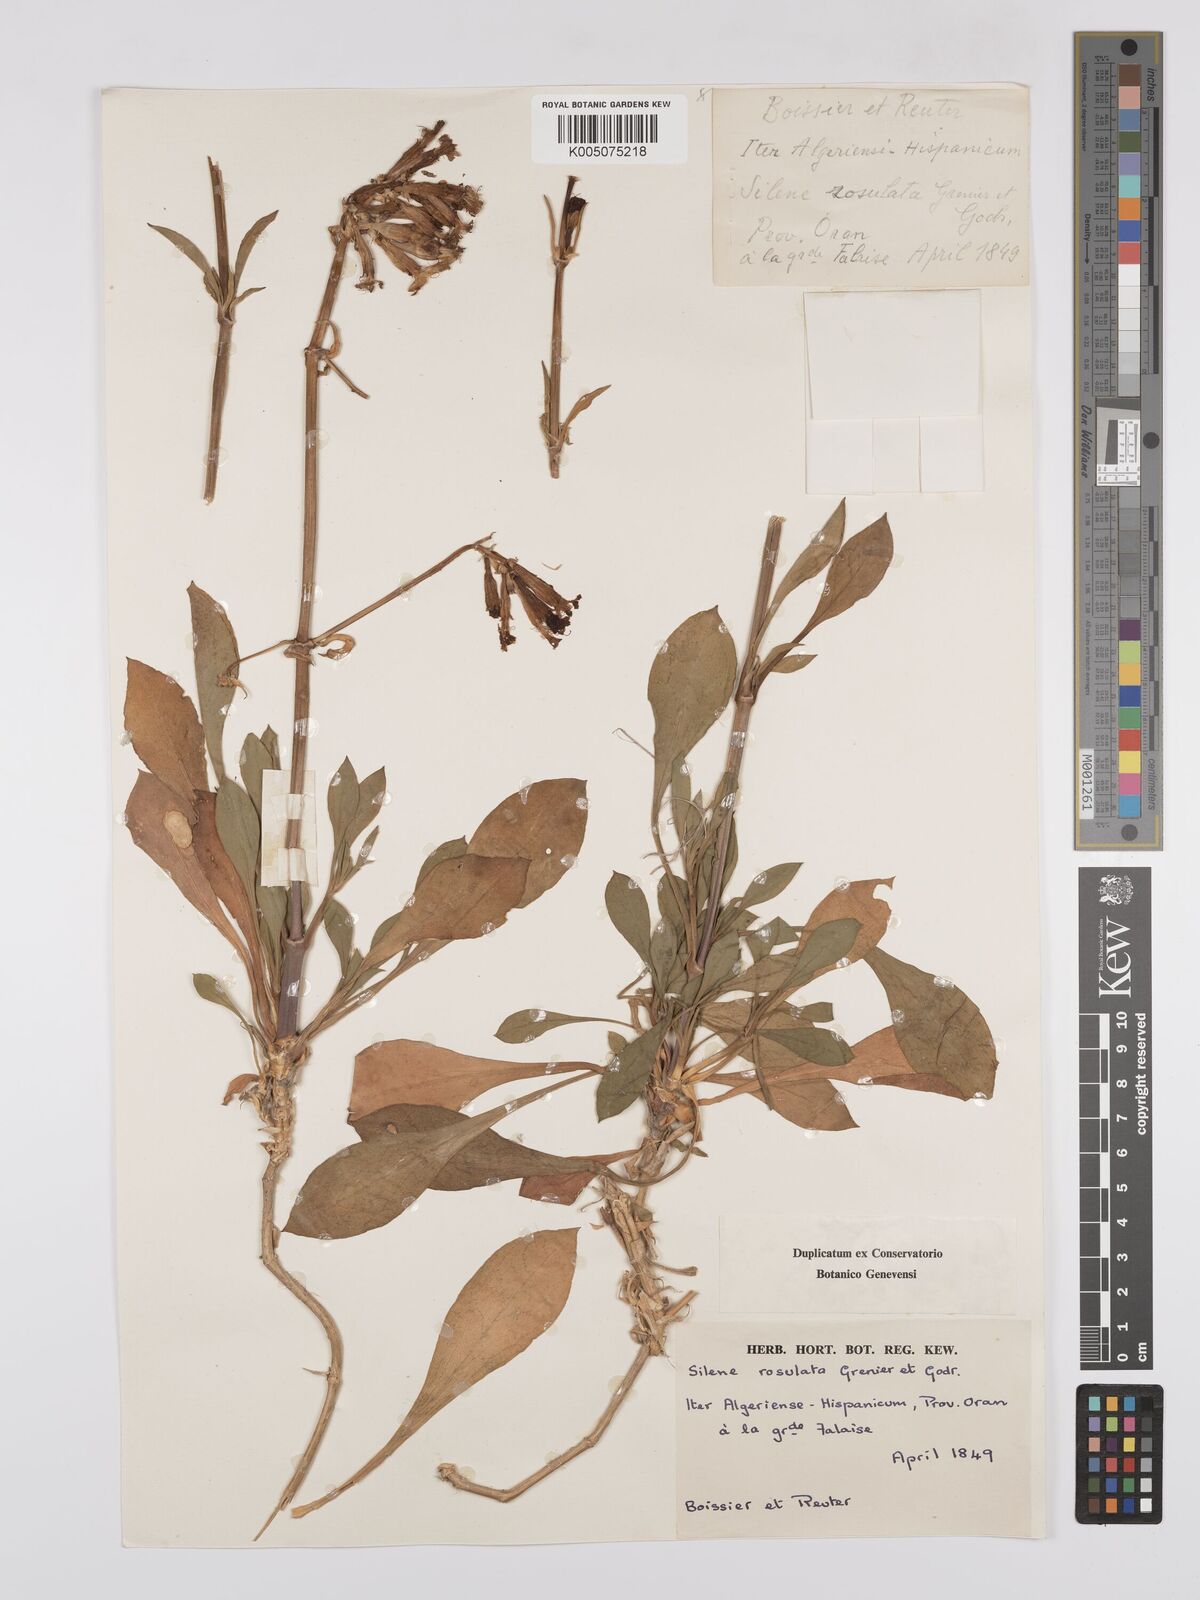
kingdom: Plantae
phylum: Tracheophyta
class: Magnoliopsida
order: Caryophyllales
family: Caryophyllaceae
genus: Silene
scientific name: Silene rosulata
